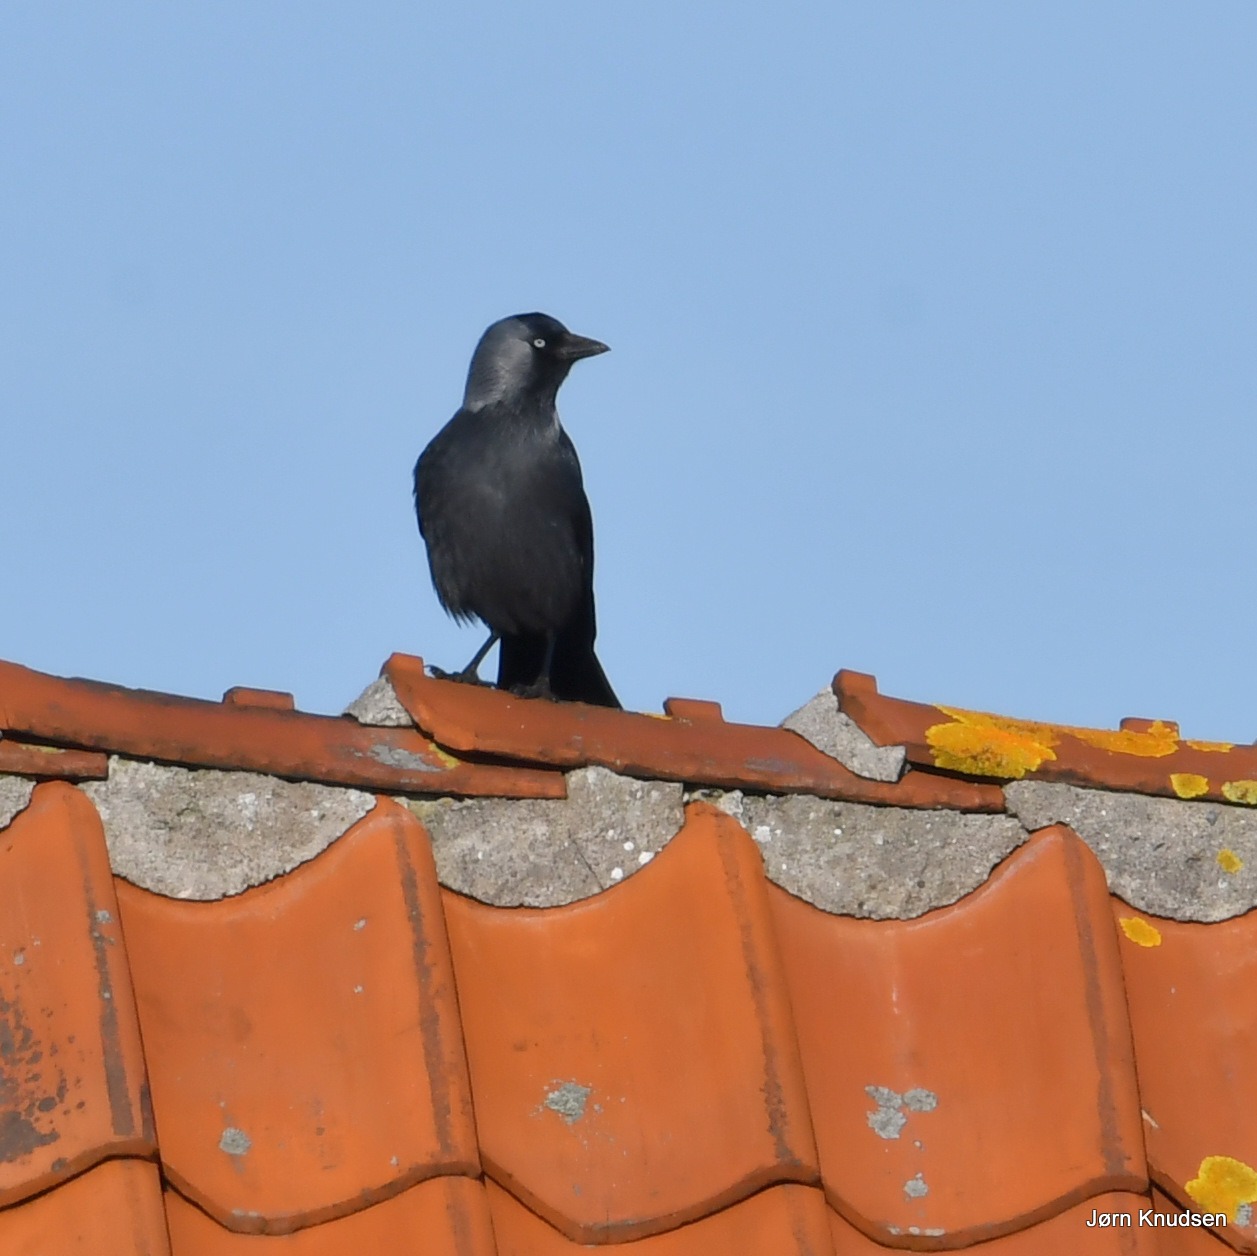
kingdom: Animalia
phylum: Chordata
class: Aves
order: Passeriformes
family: Corvidae
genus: Coloeus
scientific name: Coloeus monedula
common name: Allike
